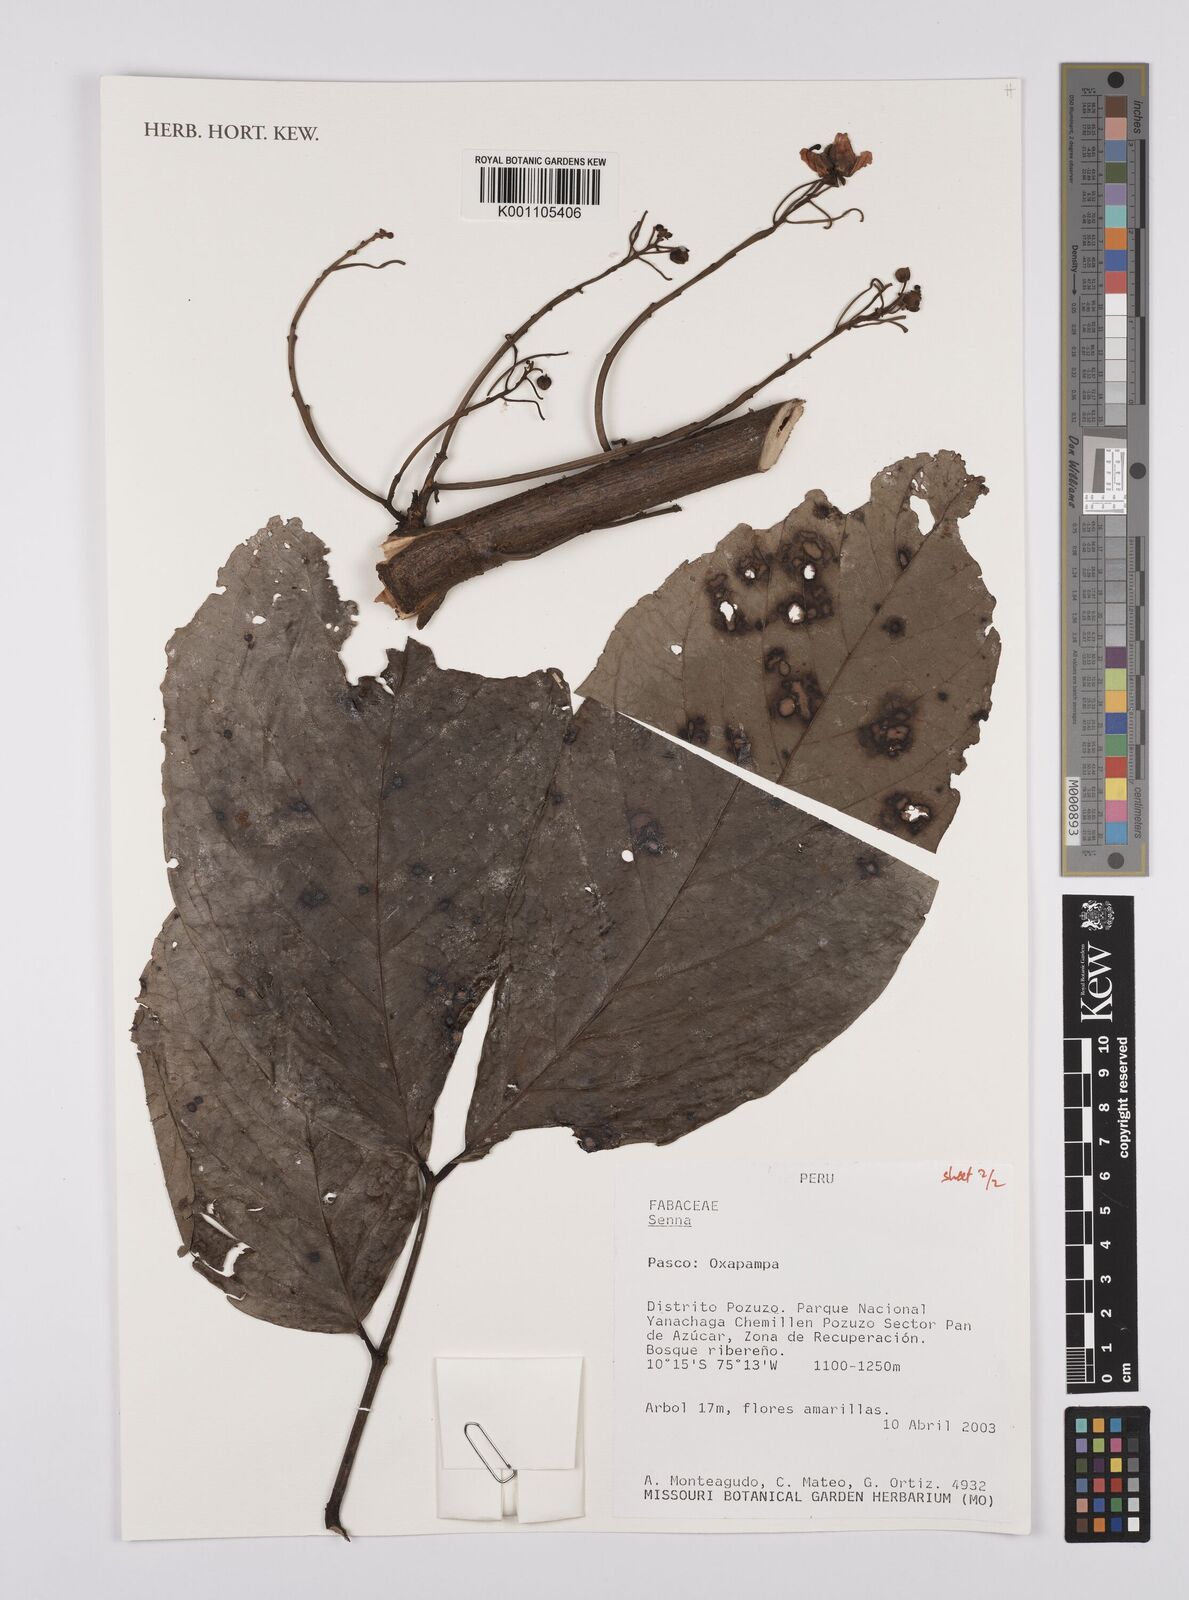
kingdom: Plantae
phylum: Tracheophyta
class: Magnoliopsida
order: Fabales
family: Fabaceae
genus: Senna
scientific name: Senna
